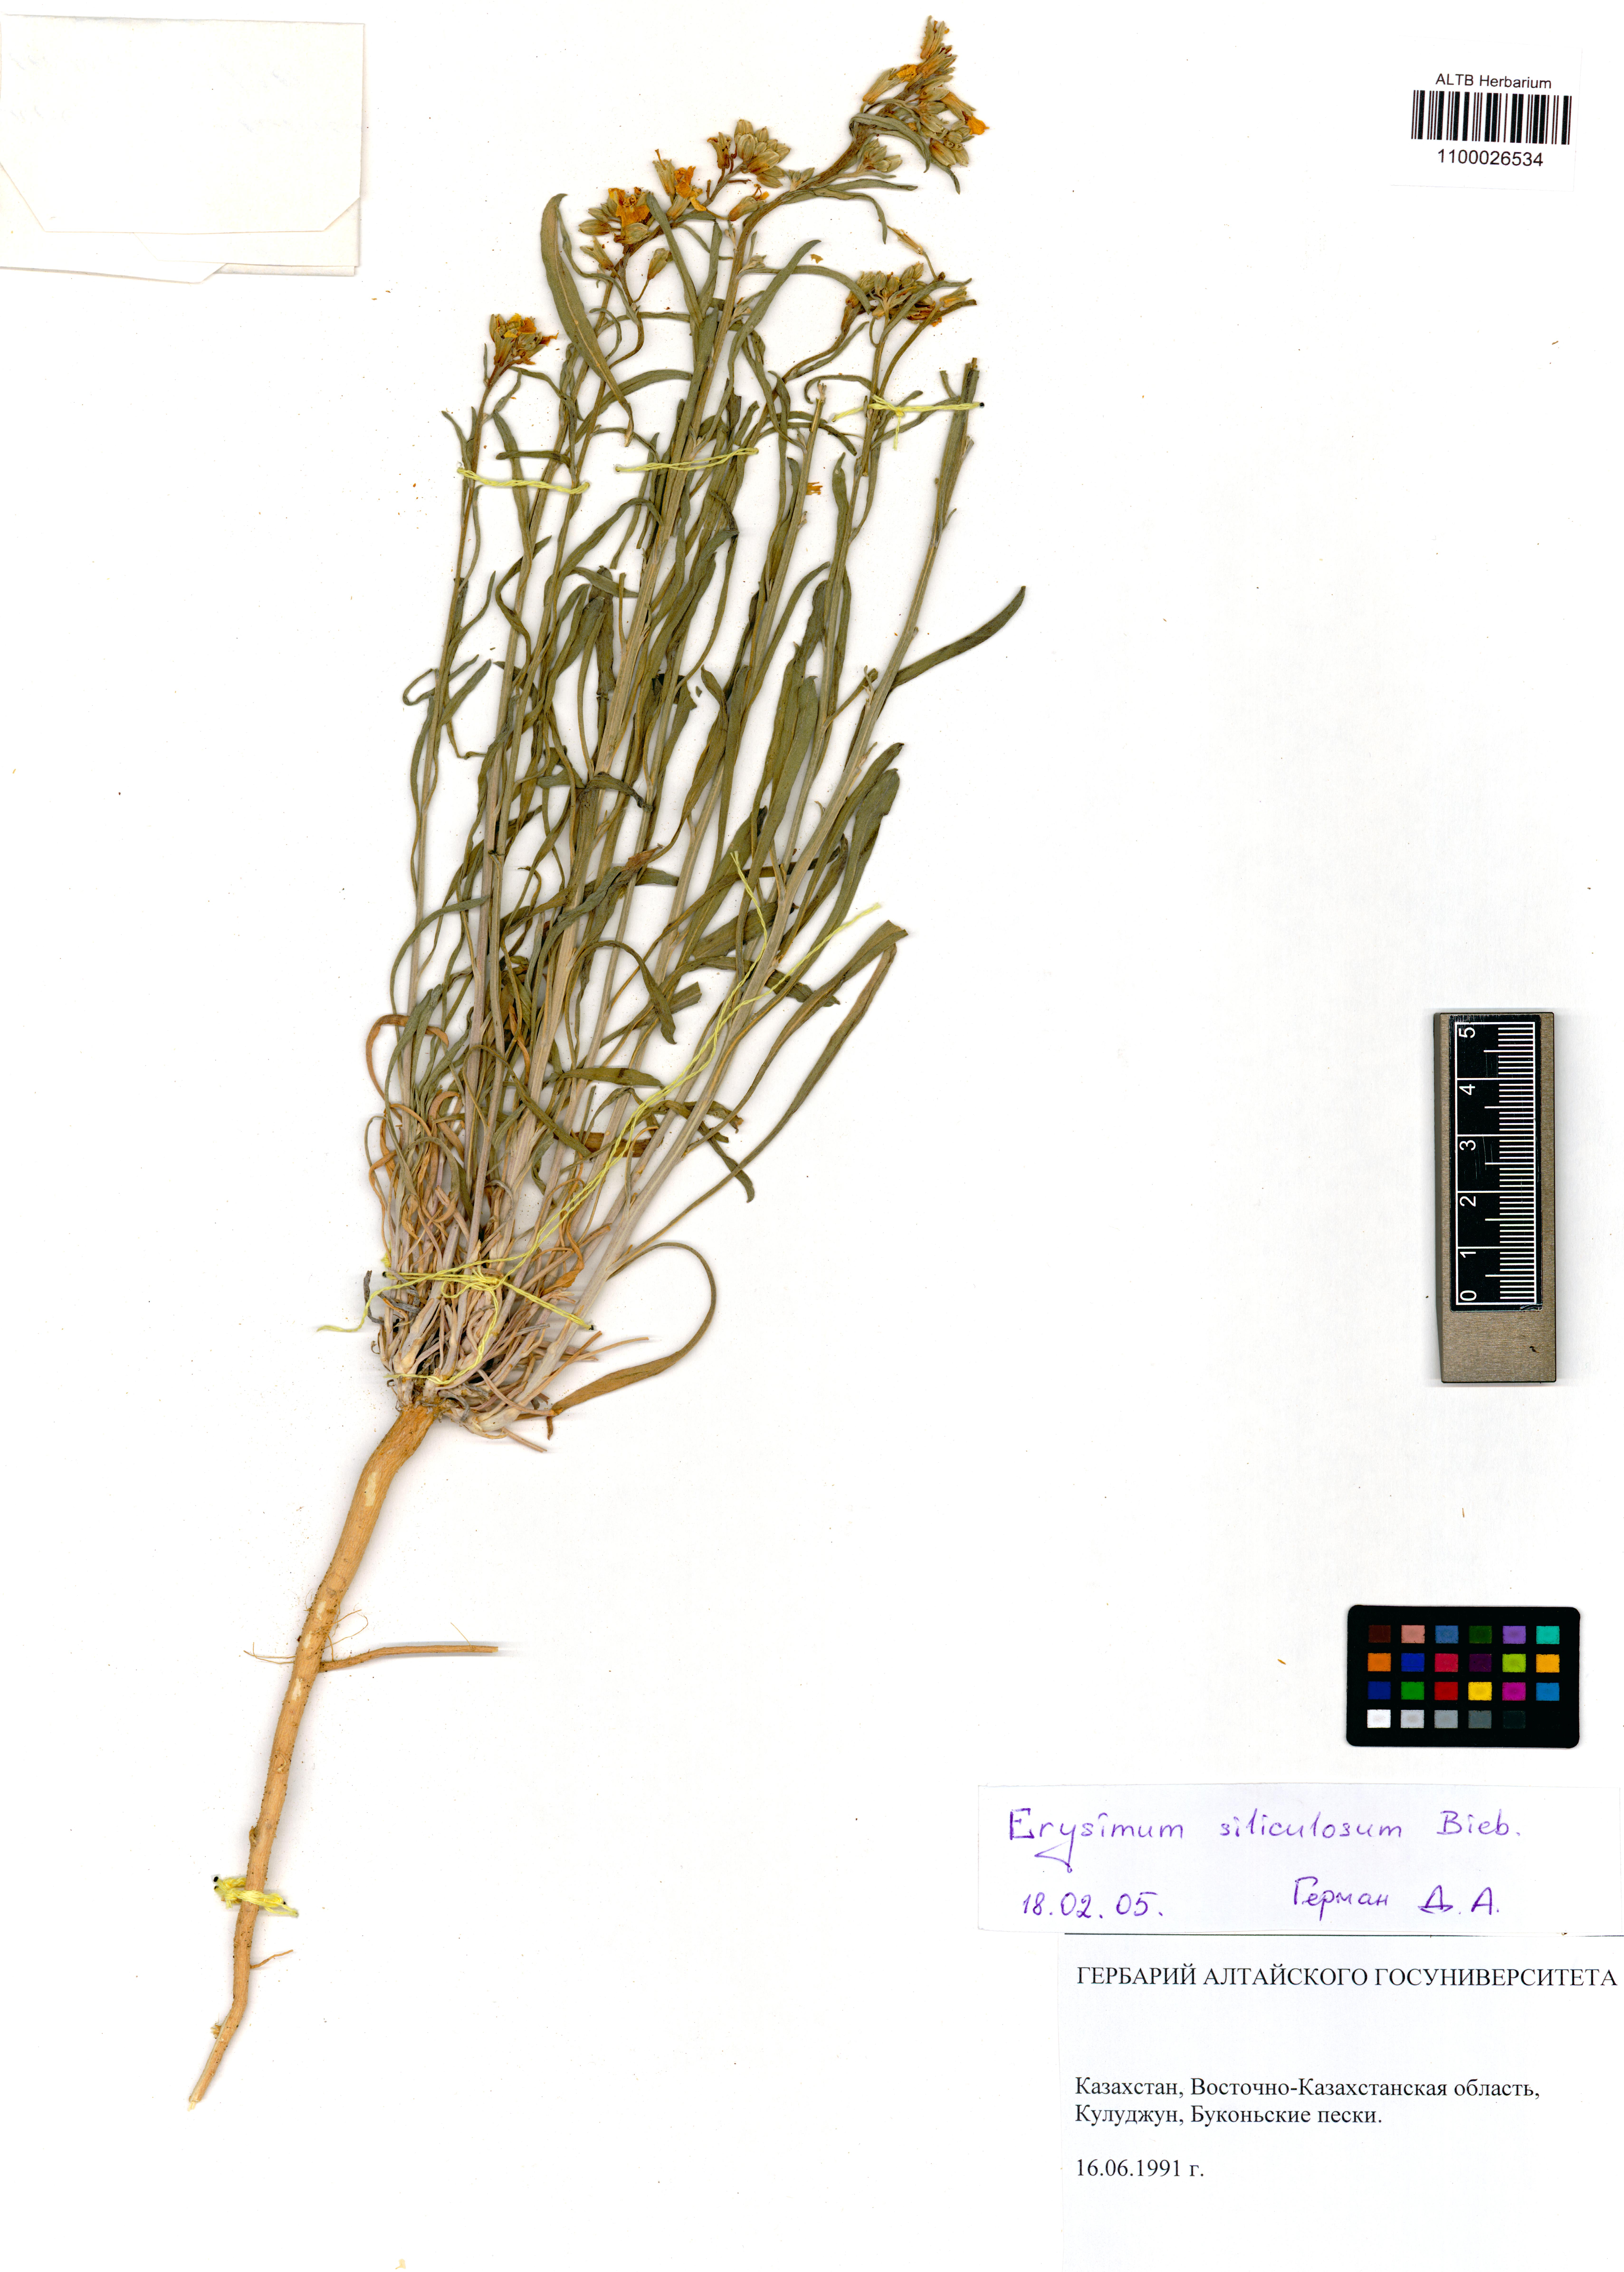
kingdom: Plantae
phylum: Tracheophyta
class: Magnoliopsida
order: Brassicales
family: Brassicaceae
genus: Syrenia
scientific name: Syrenia siliculosa
